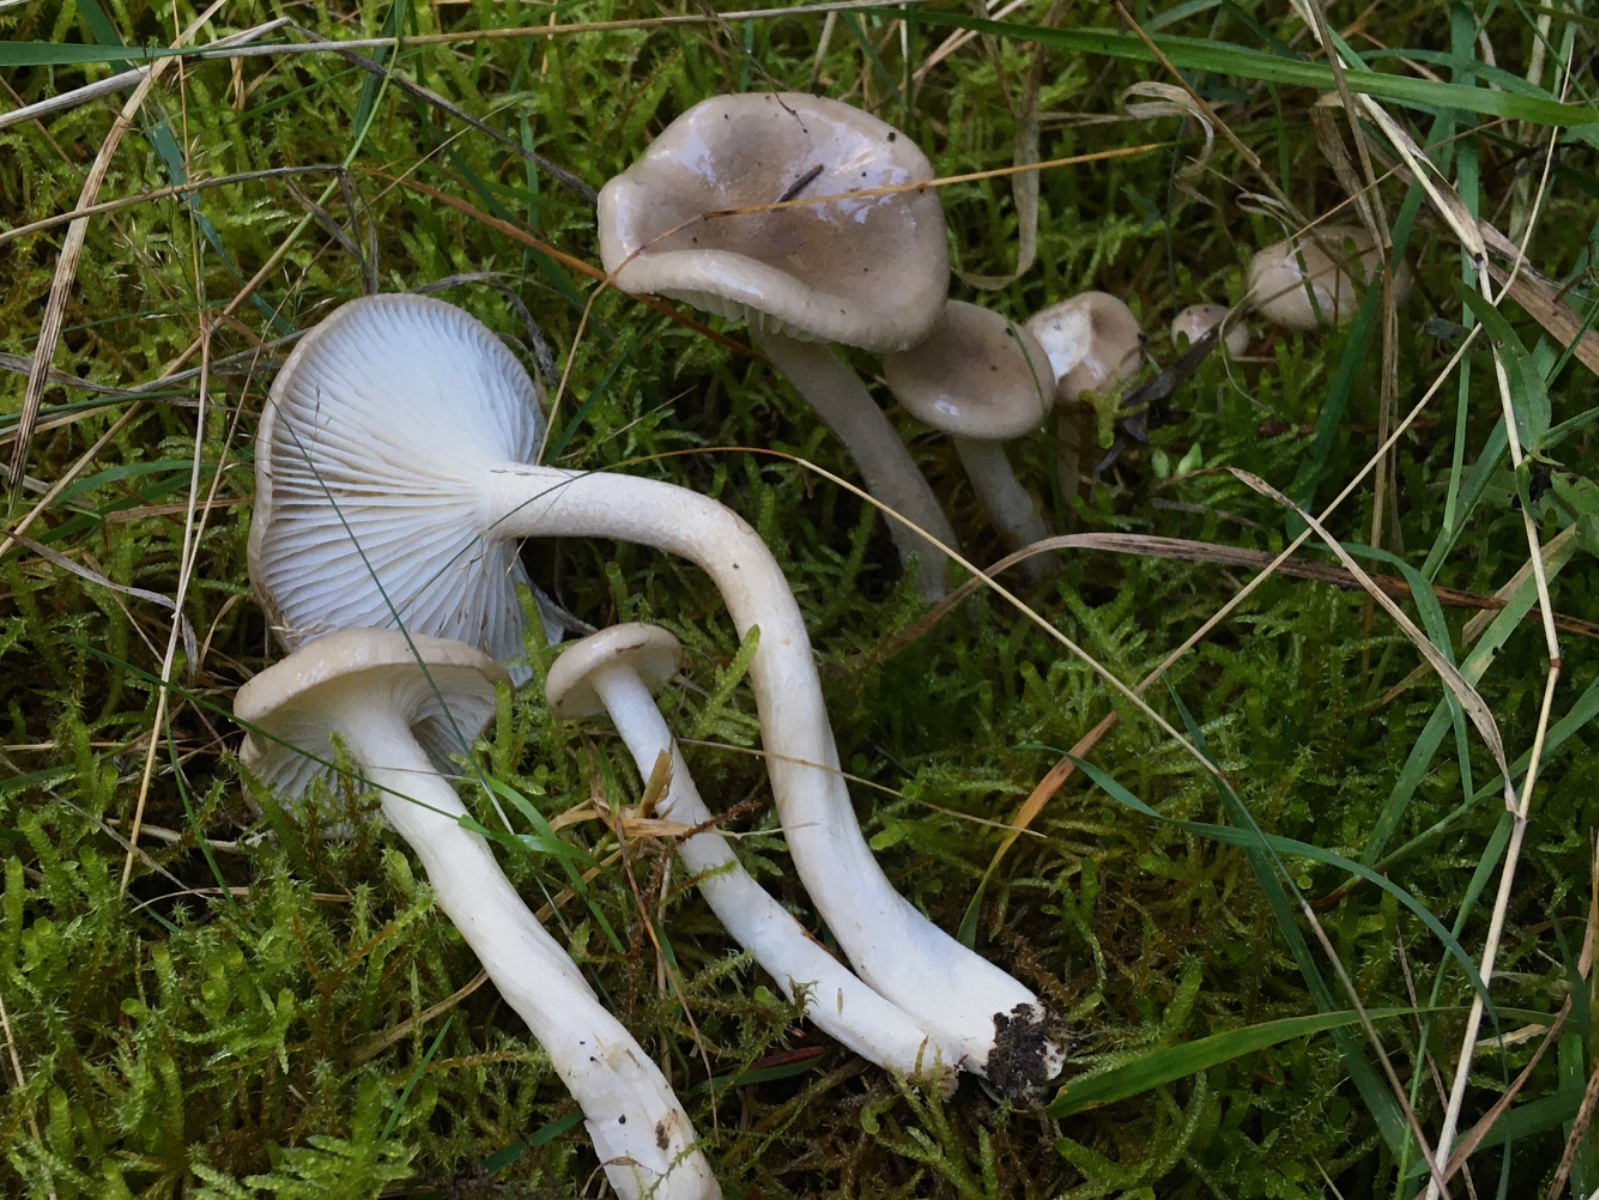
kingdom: Fungi
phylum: Basidiomycota
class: Agaricomycetes
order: Agaricales
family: Hygrophoraceae
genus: Hygrophorus
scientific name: Hygrophorus agathosmus
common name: vellugtende sneglehat
